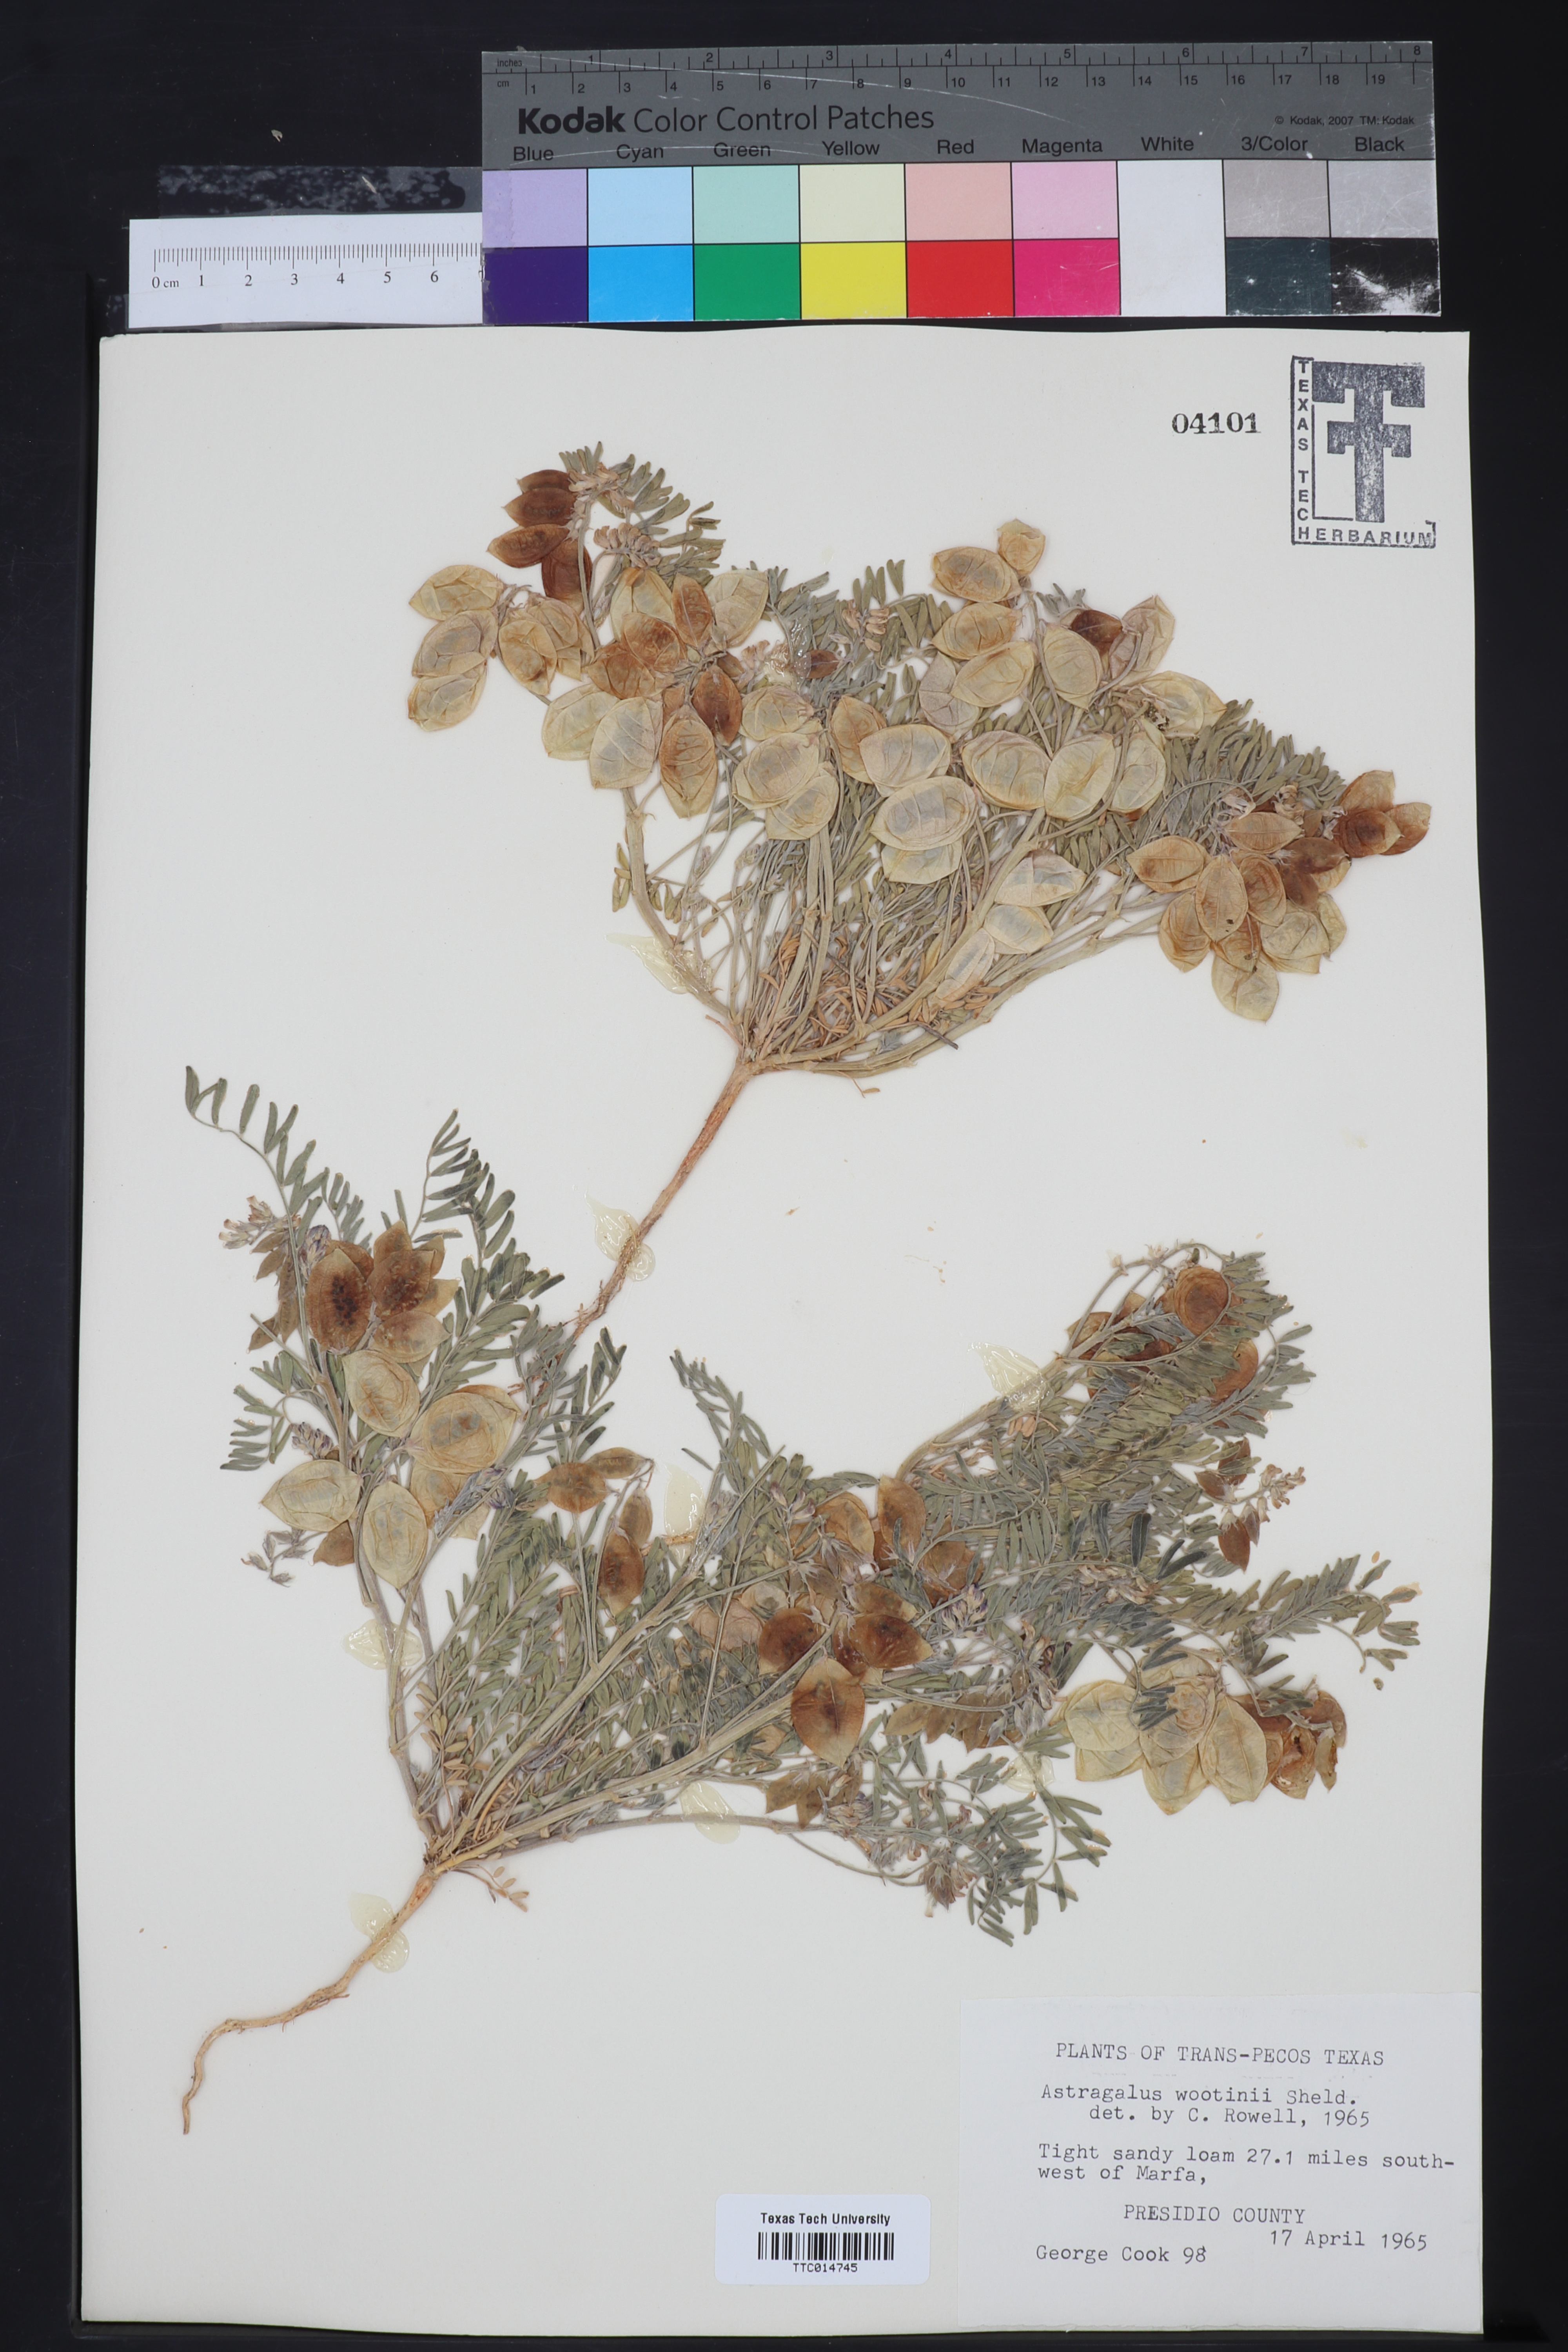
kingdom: Plantae
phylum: Tracheophyta
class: Magnoliopsida
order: Fabales
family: Fabaceae
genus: Astragalus
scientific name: Astragalus wootonii
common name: Wooton's milk-vetch
